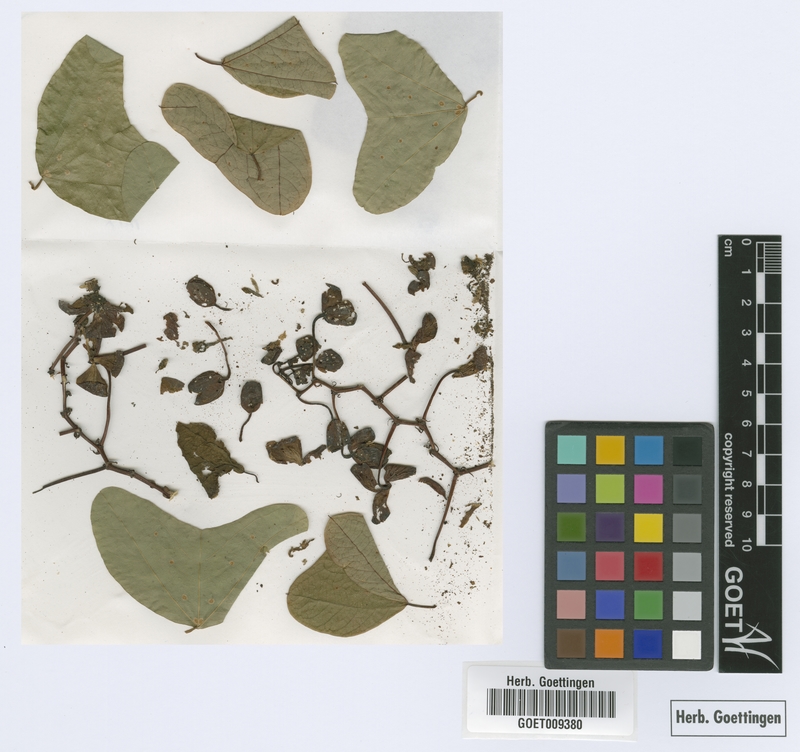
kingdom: Plantae
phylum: Tracheophyta
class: Magnoliopsida
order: Malpighiales
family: Passifloraceae
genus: Passiflora
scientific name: Passiflora bicornis
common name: Wingleaf passionflower
